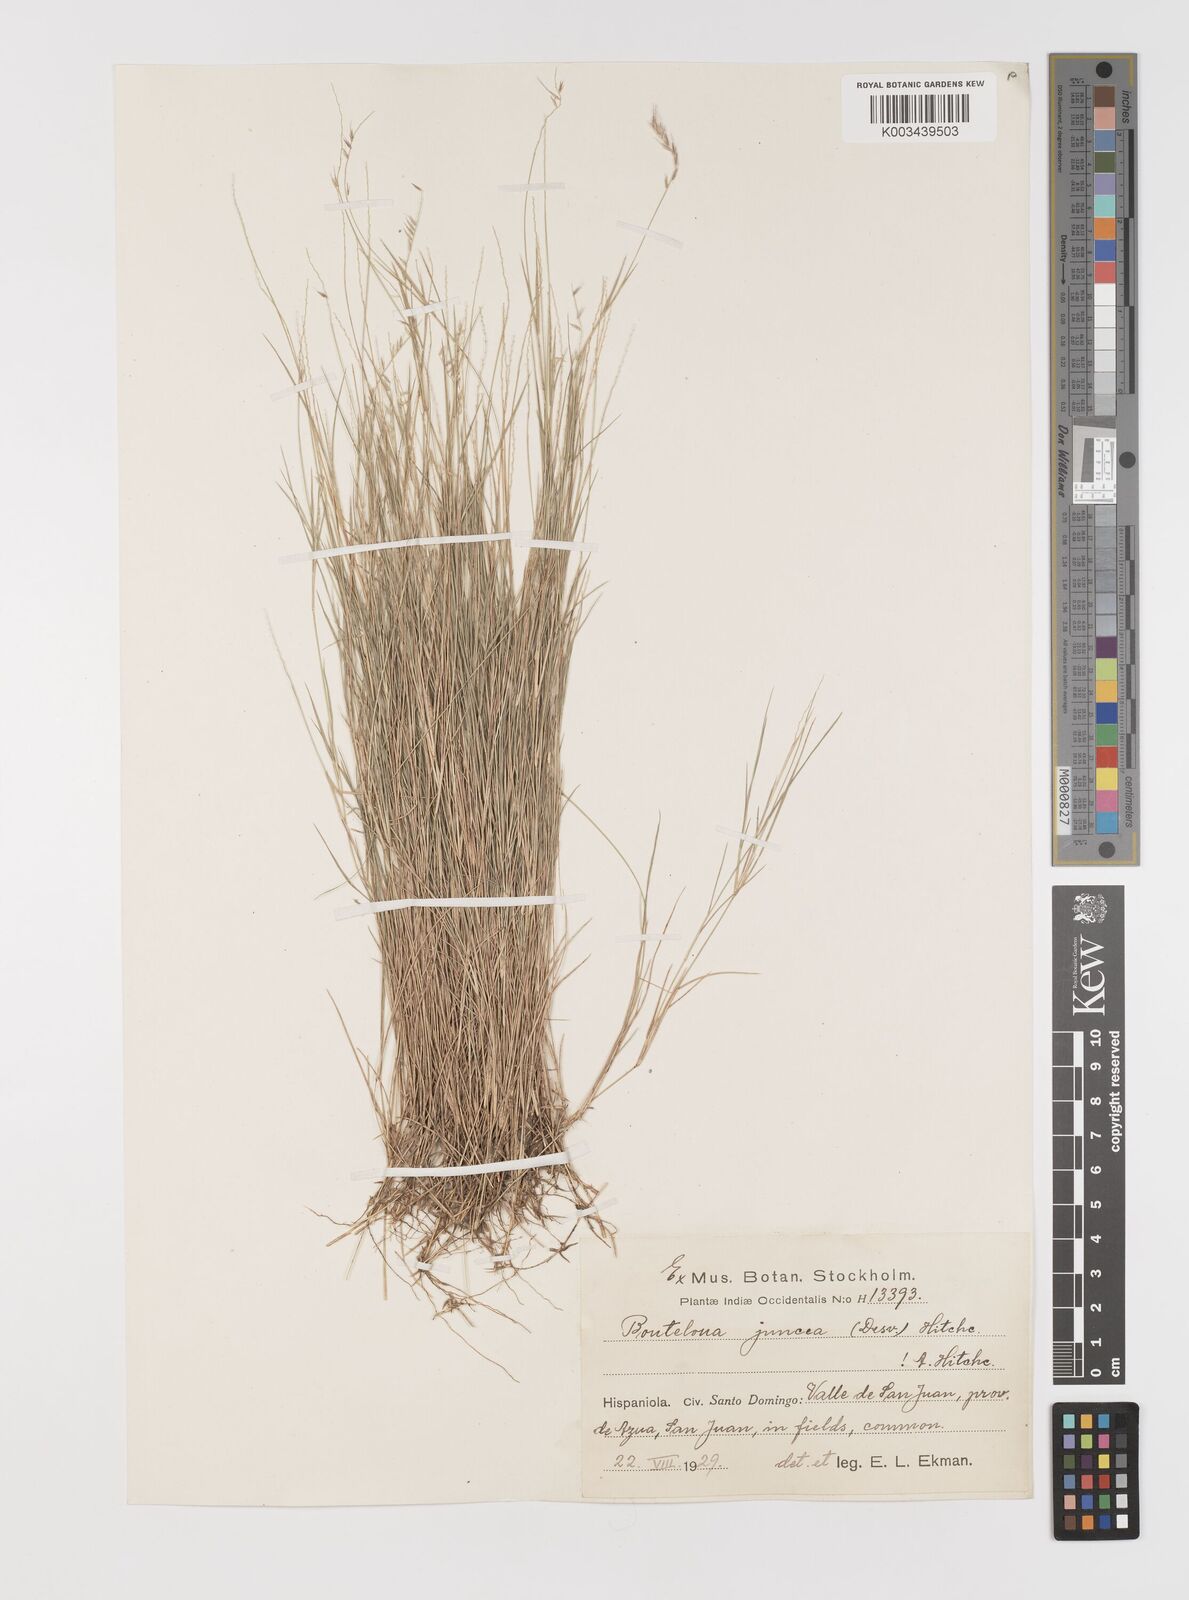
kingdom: Plantae
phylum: Tracheophyta
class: Liliopsida
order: Poales
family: Poaceae
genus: Bouteloua
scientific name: Bouteloua juncea
